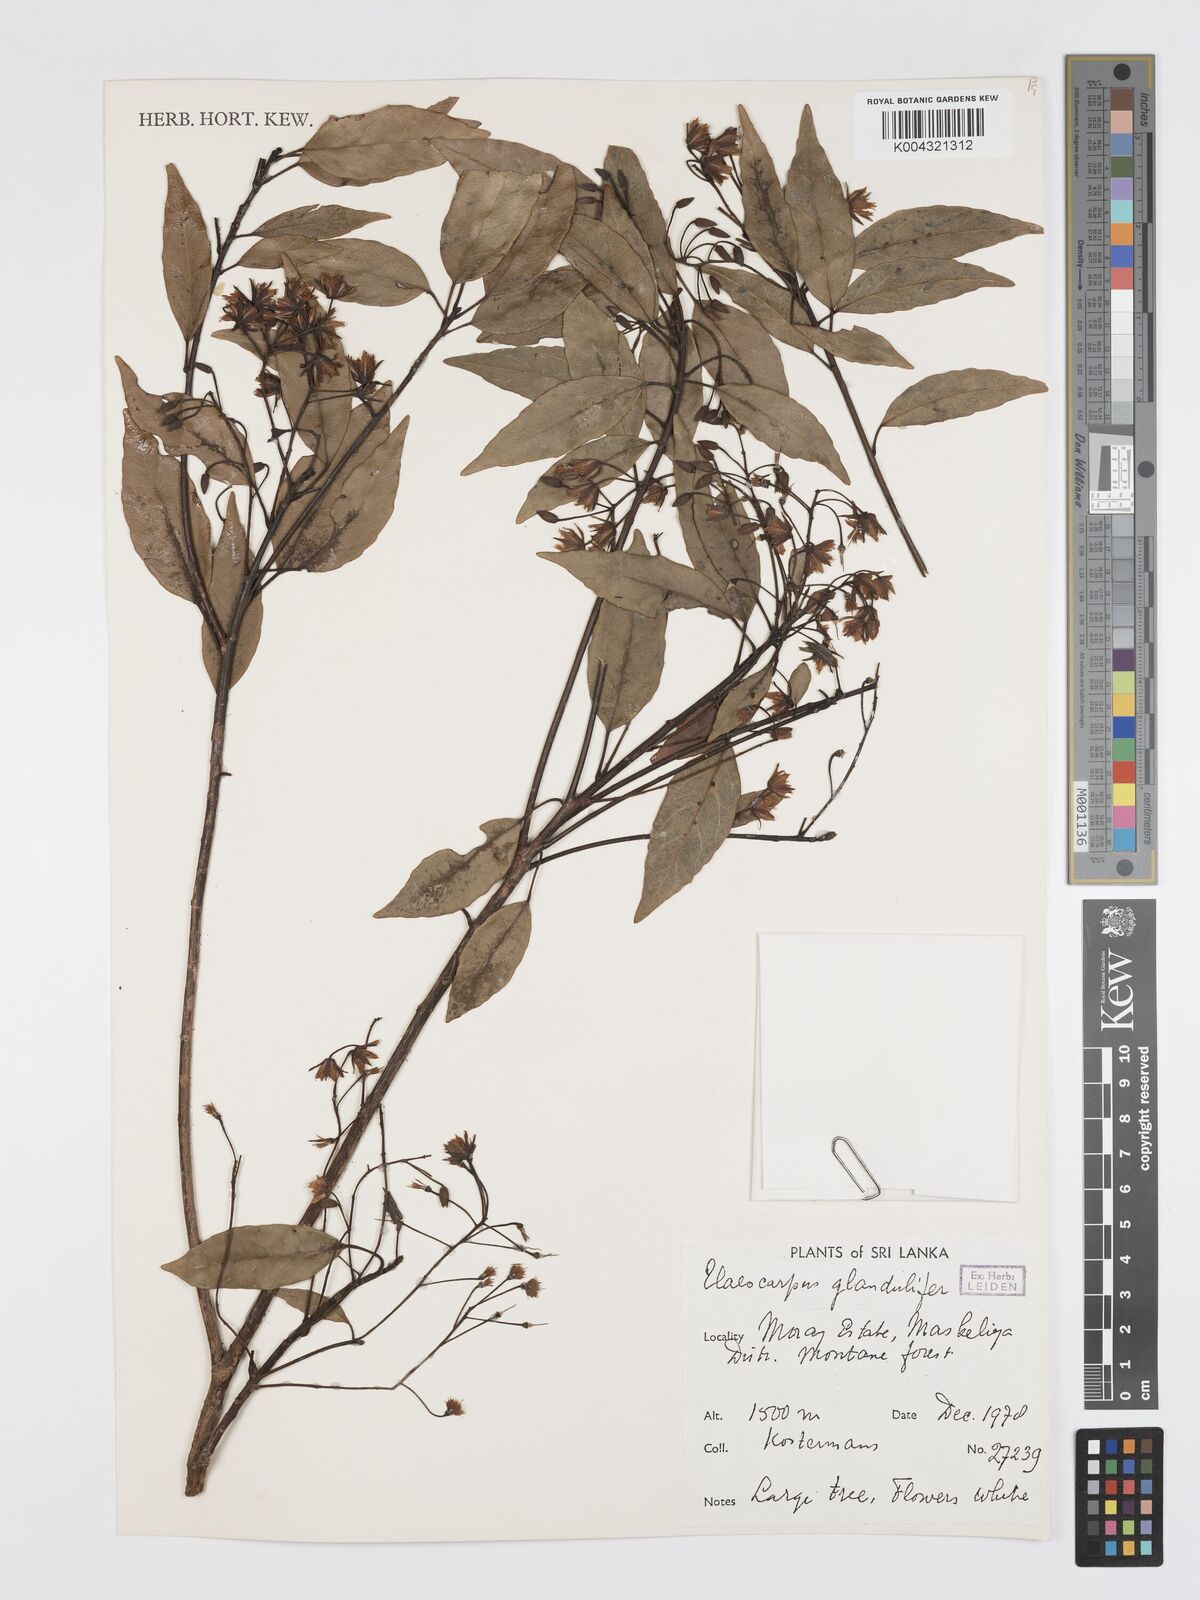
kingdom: Plantae
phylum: Tracheophyta
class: Magnoliopsida
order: Oxalidales
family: Elaeocarpaceae
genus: Elaeocarpus
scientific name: Elaeocarpus glandulifer
